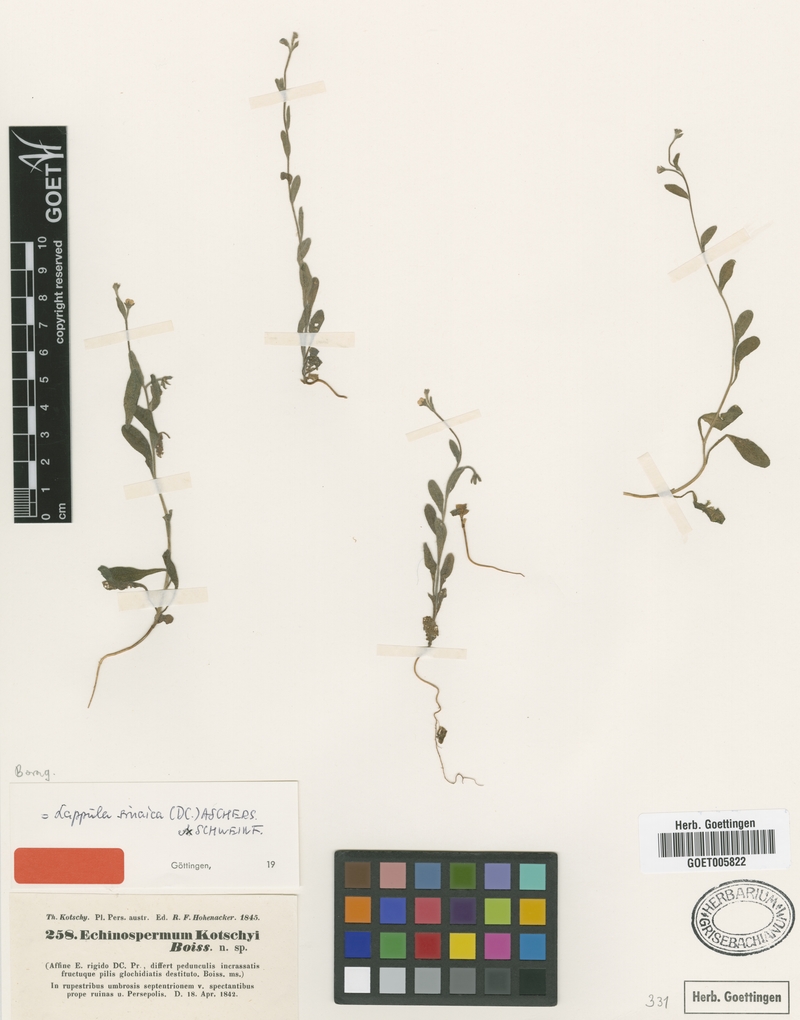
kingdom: Plantae
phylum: Tracheophyta
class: Magnoliopsida
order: Boraginales
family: Boraginaceae
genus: Pseudolappula
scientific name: Pseudolappula sinaica
